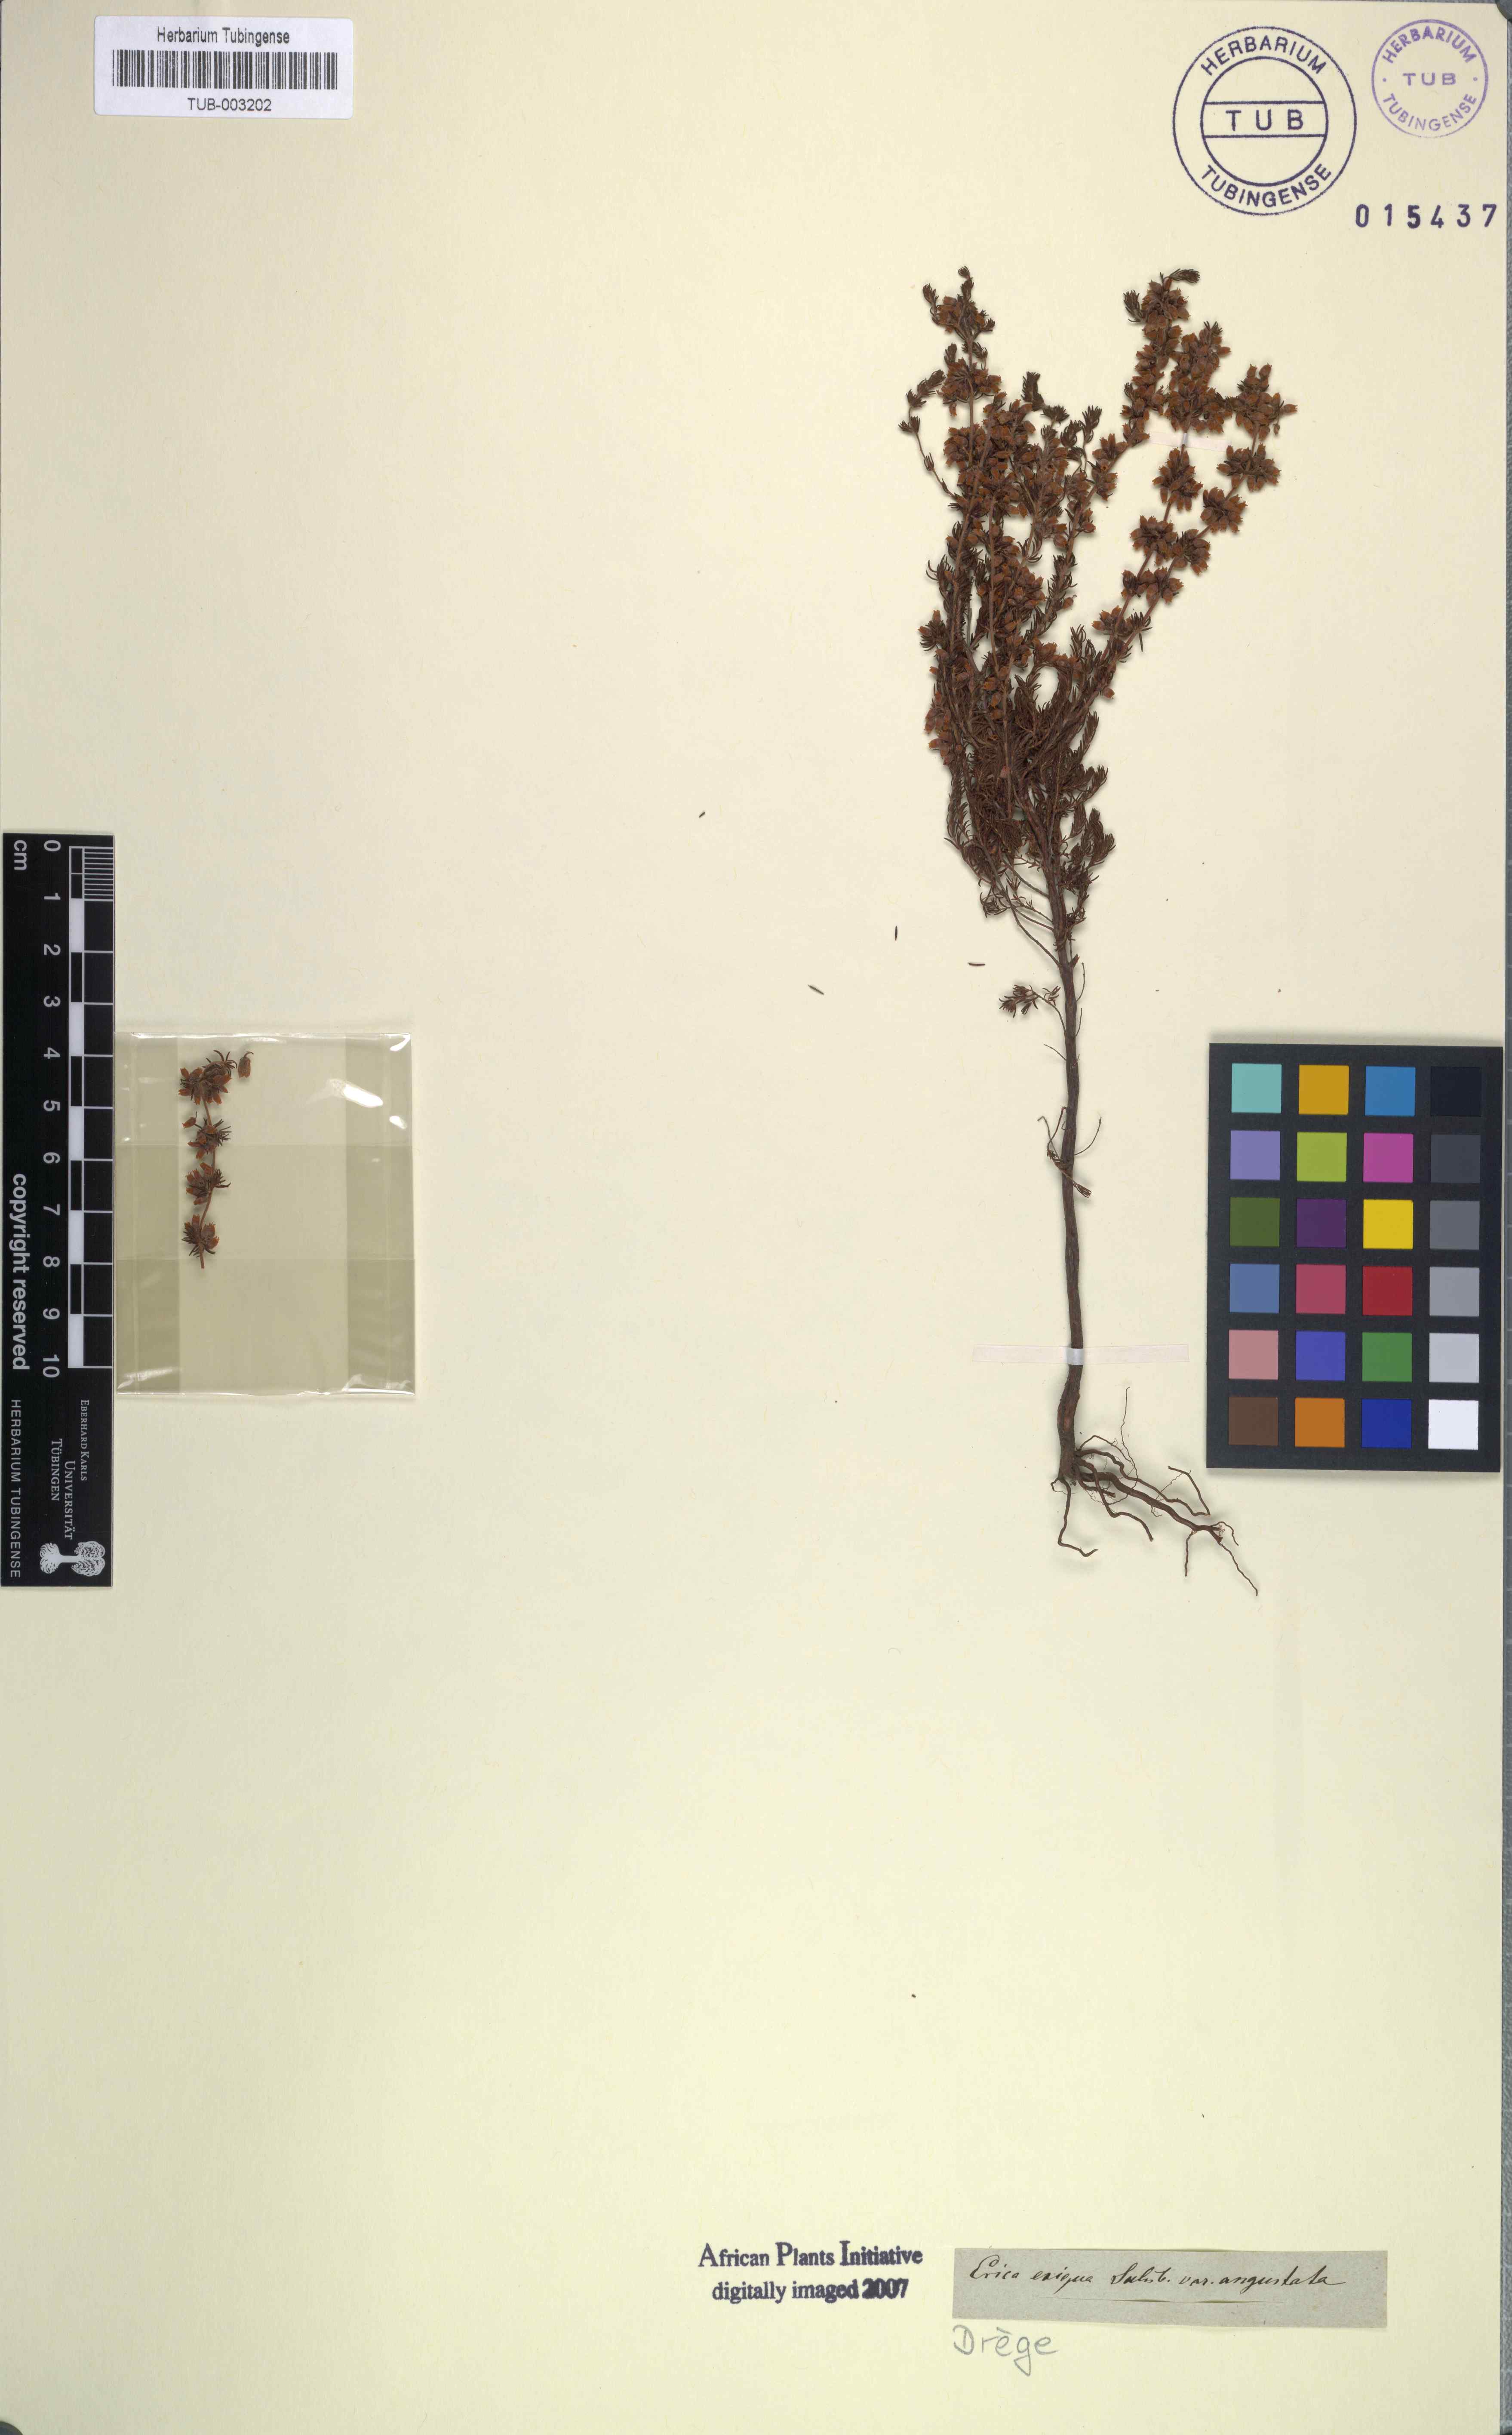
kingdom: Plantae
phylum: Tracheophyta
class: Magnoliopsida
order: Ericales
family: Ericaceae
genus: Erica
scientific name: Erica parviflora
